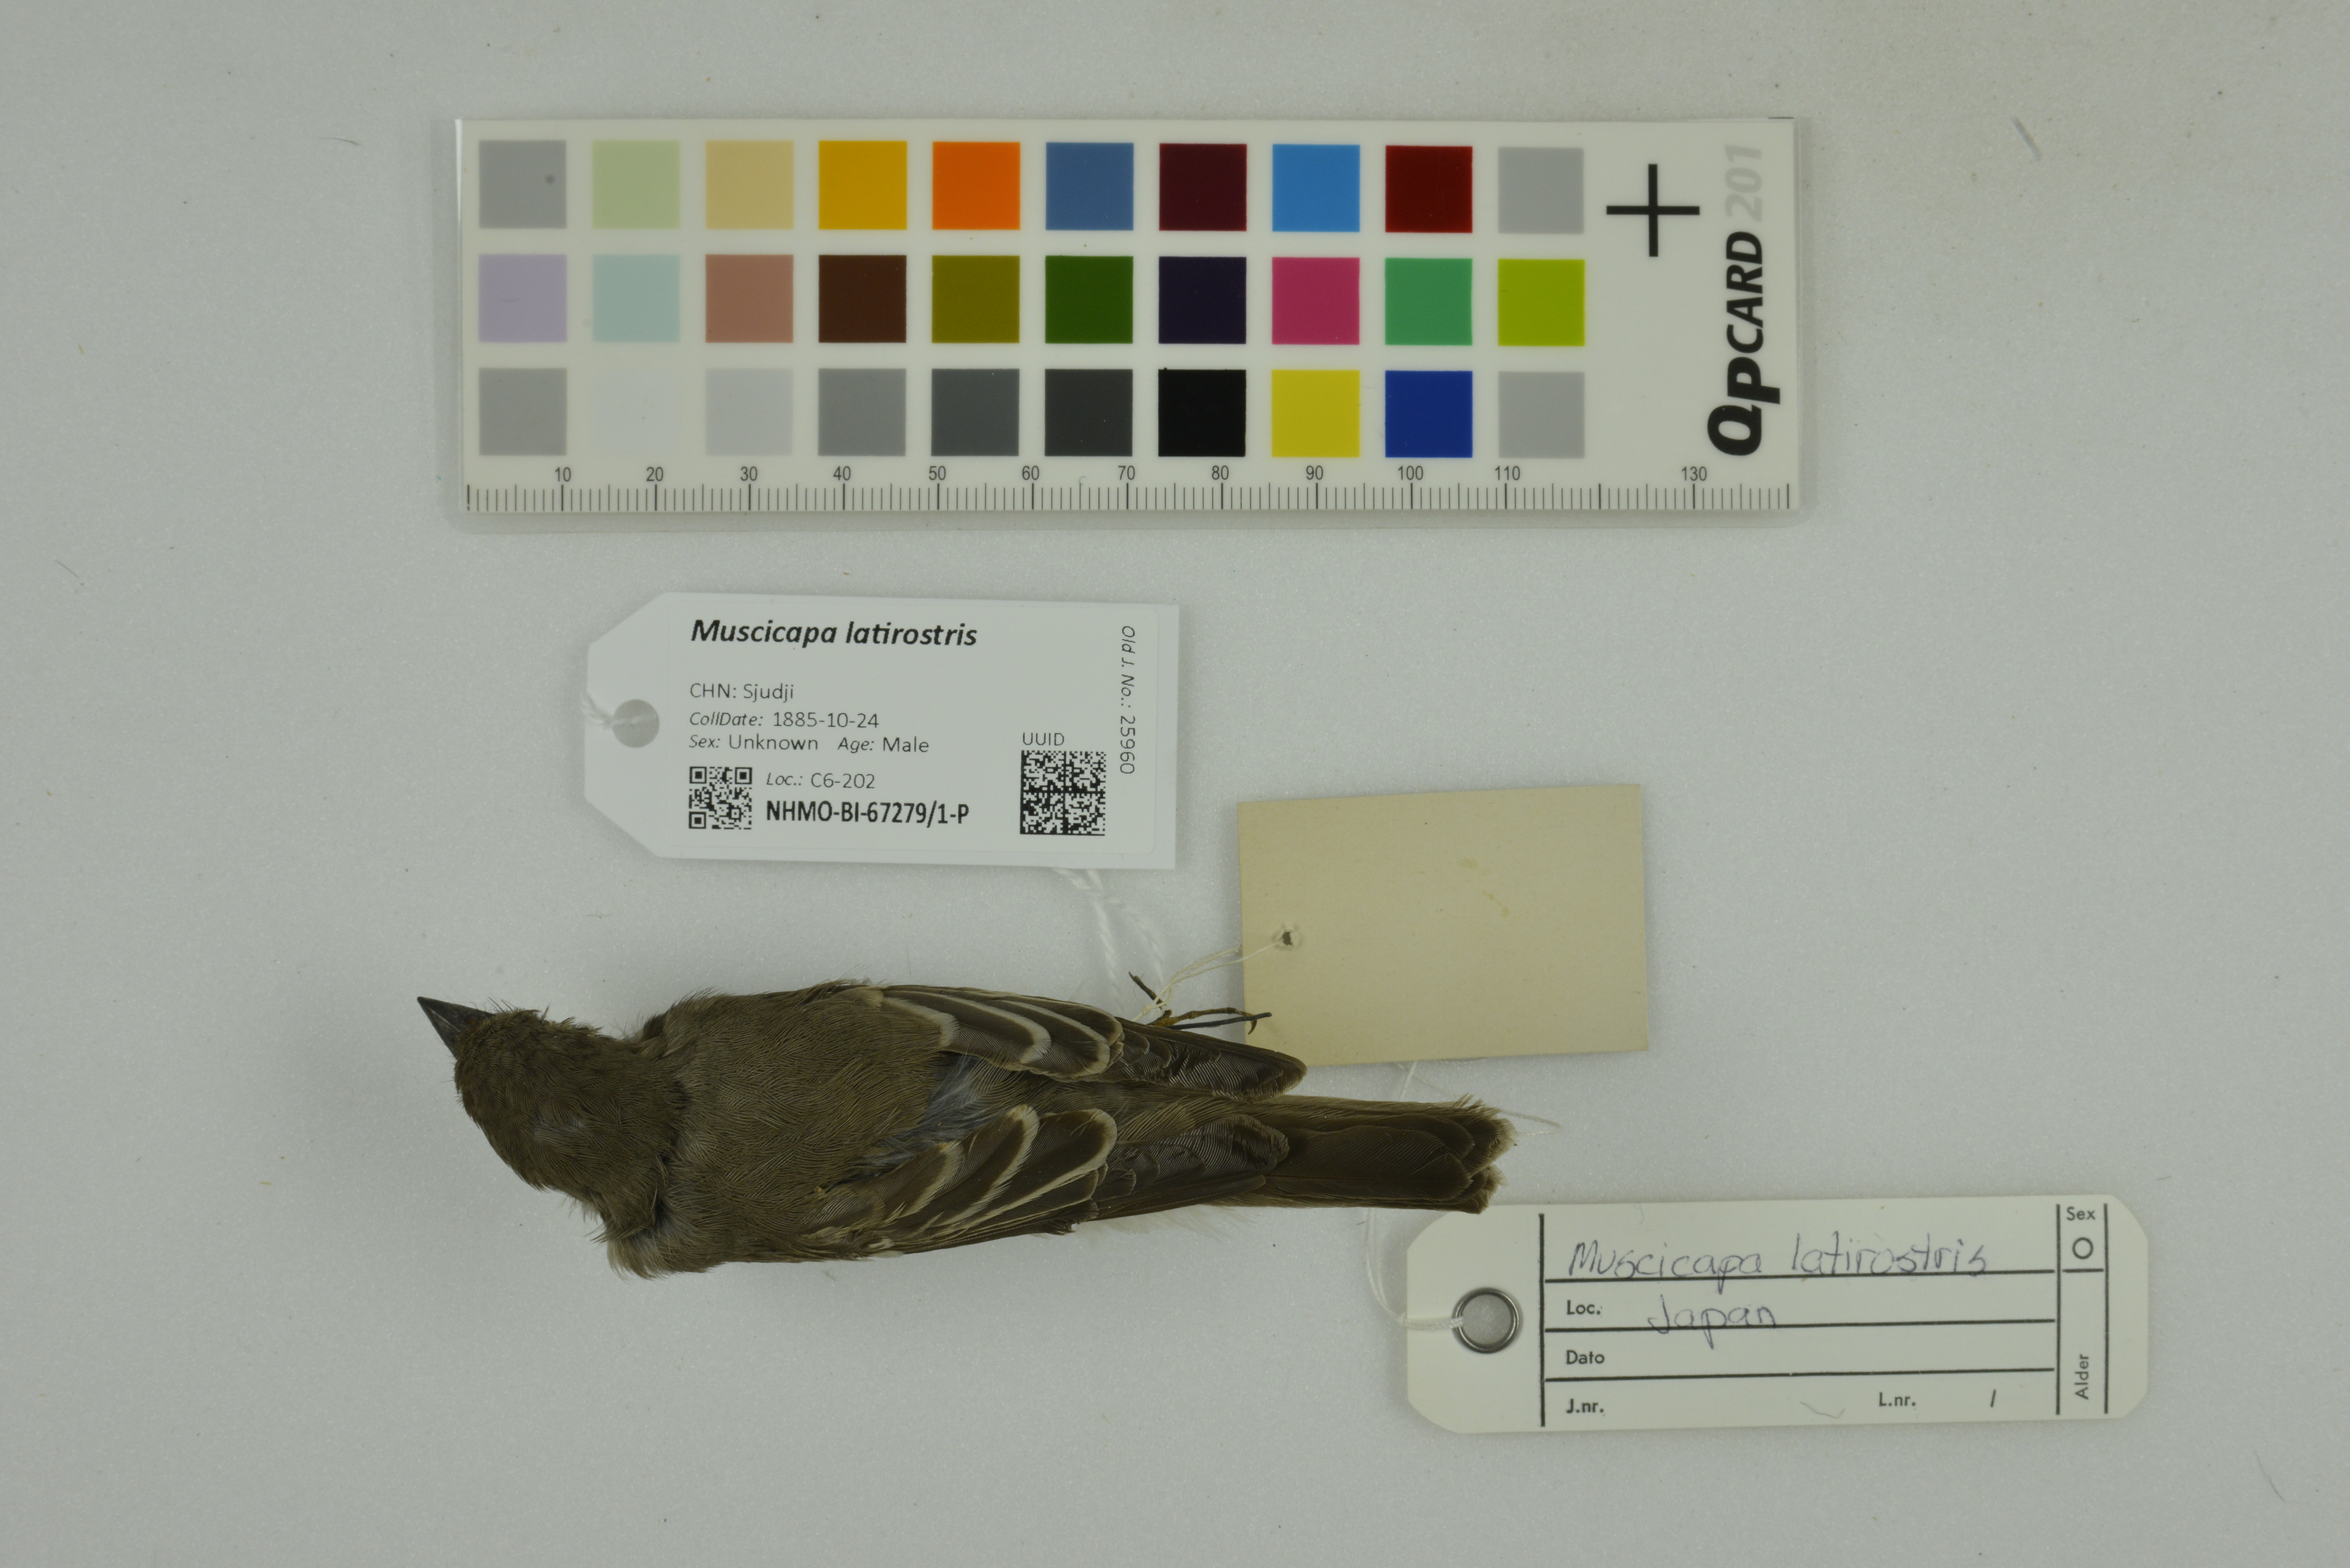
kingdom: Animalia
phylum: Chordata
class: Aves
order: Passeriformes
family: Muscicapidae
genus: Muscicapa
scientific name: Muscicapa latirostris
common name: Asian brown flycatcher
